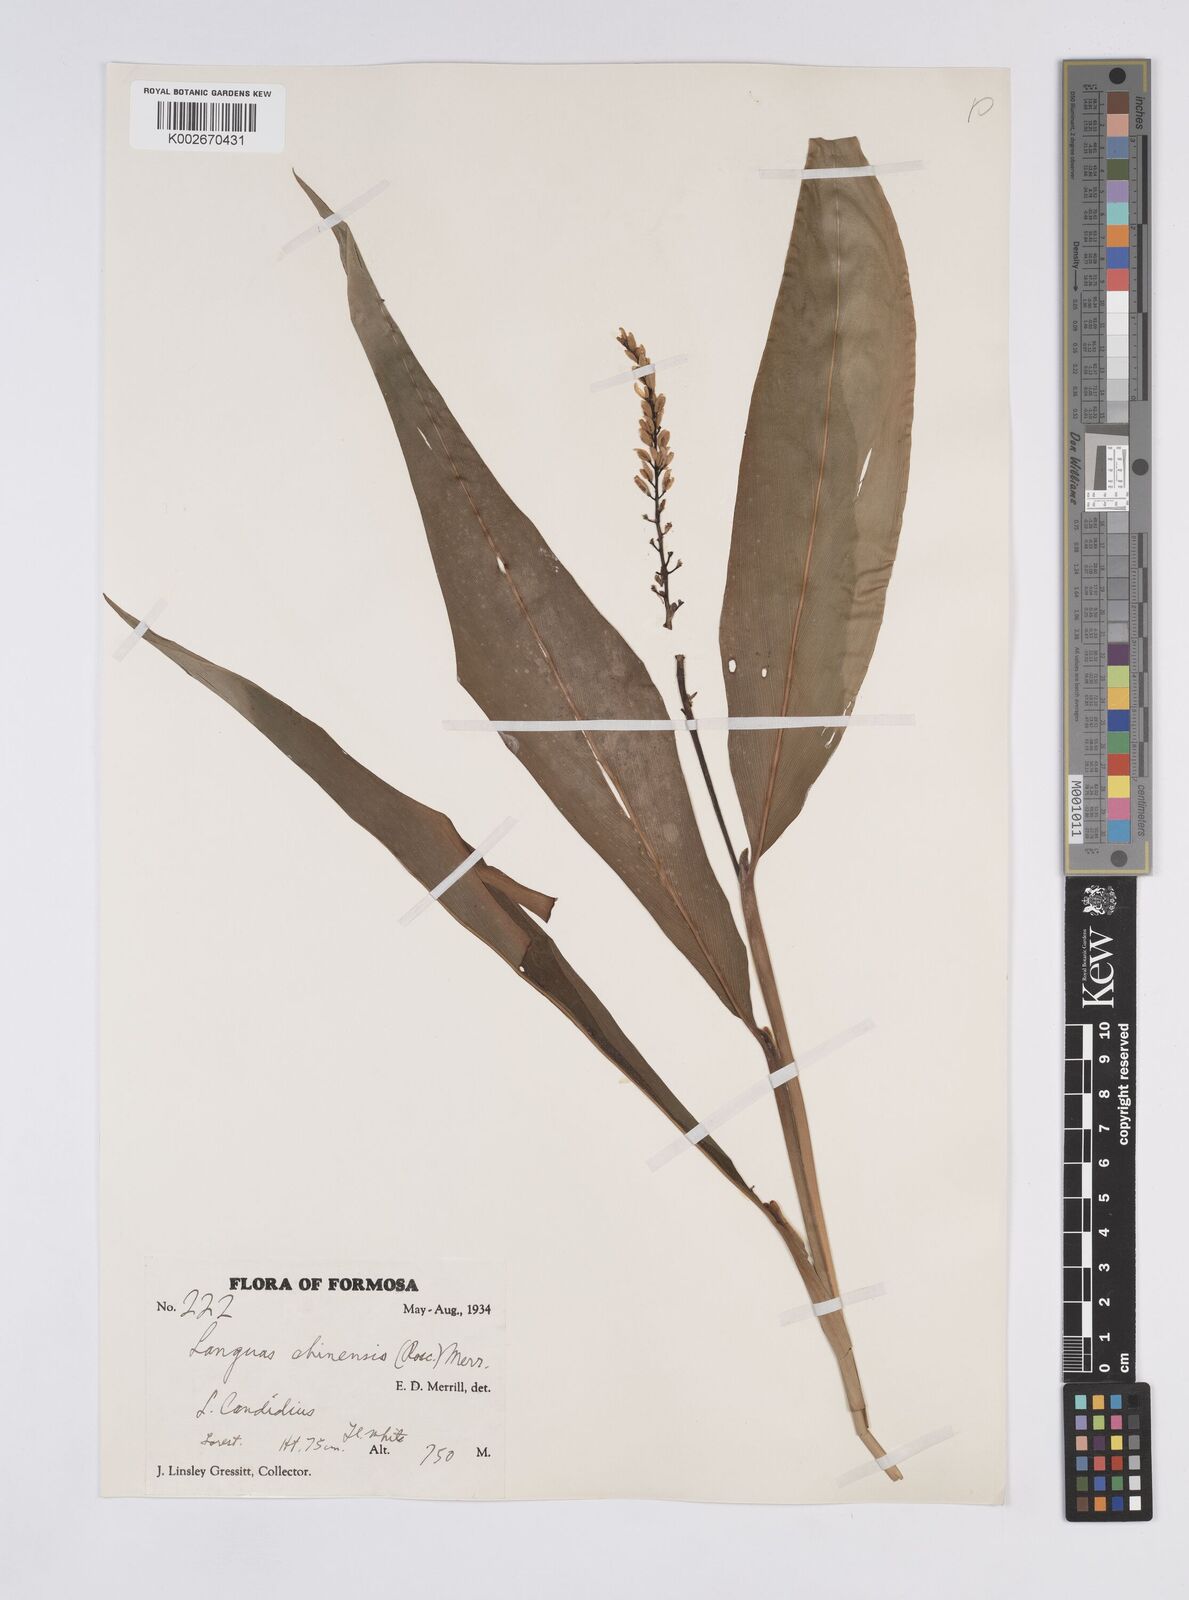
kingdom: Plantae
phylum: Tracheophyta
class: Liliopsida
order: Zingiberales
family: Zingiberaceae
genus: Alpinia
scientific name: Alpinia chinensis
